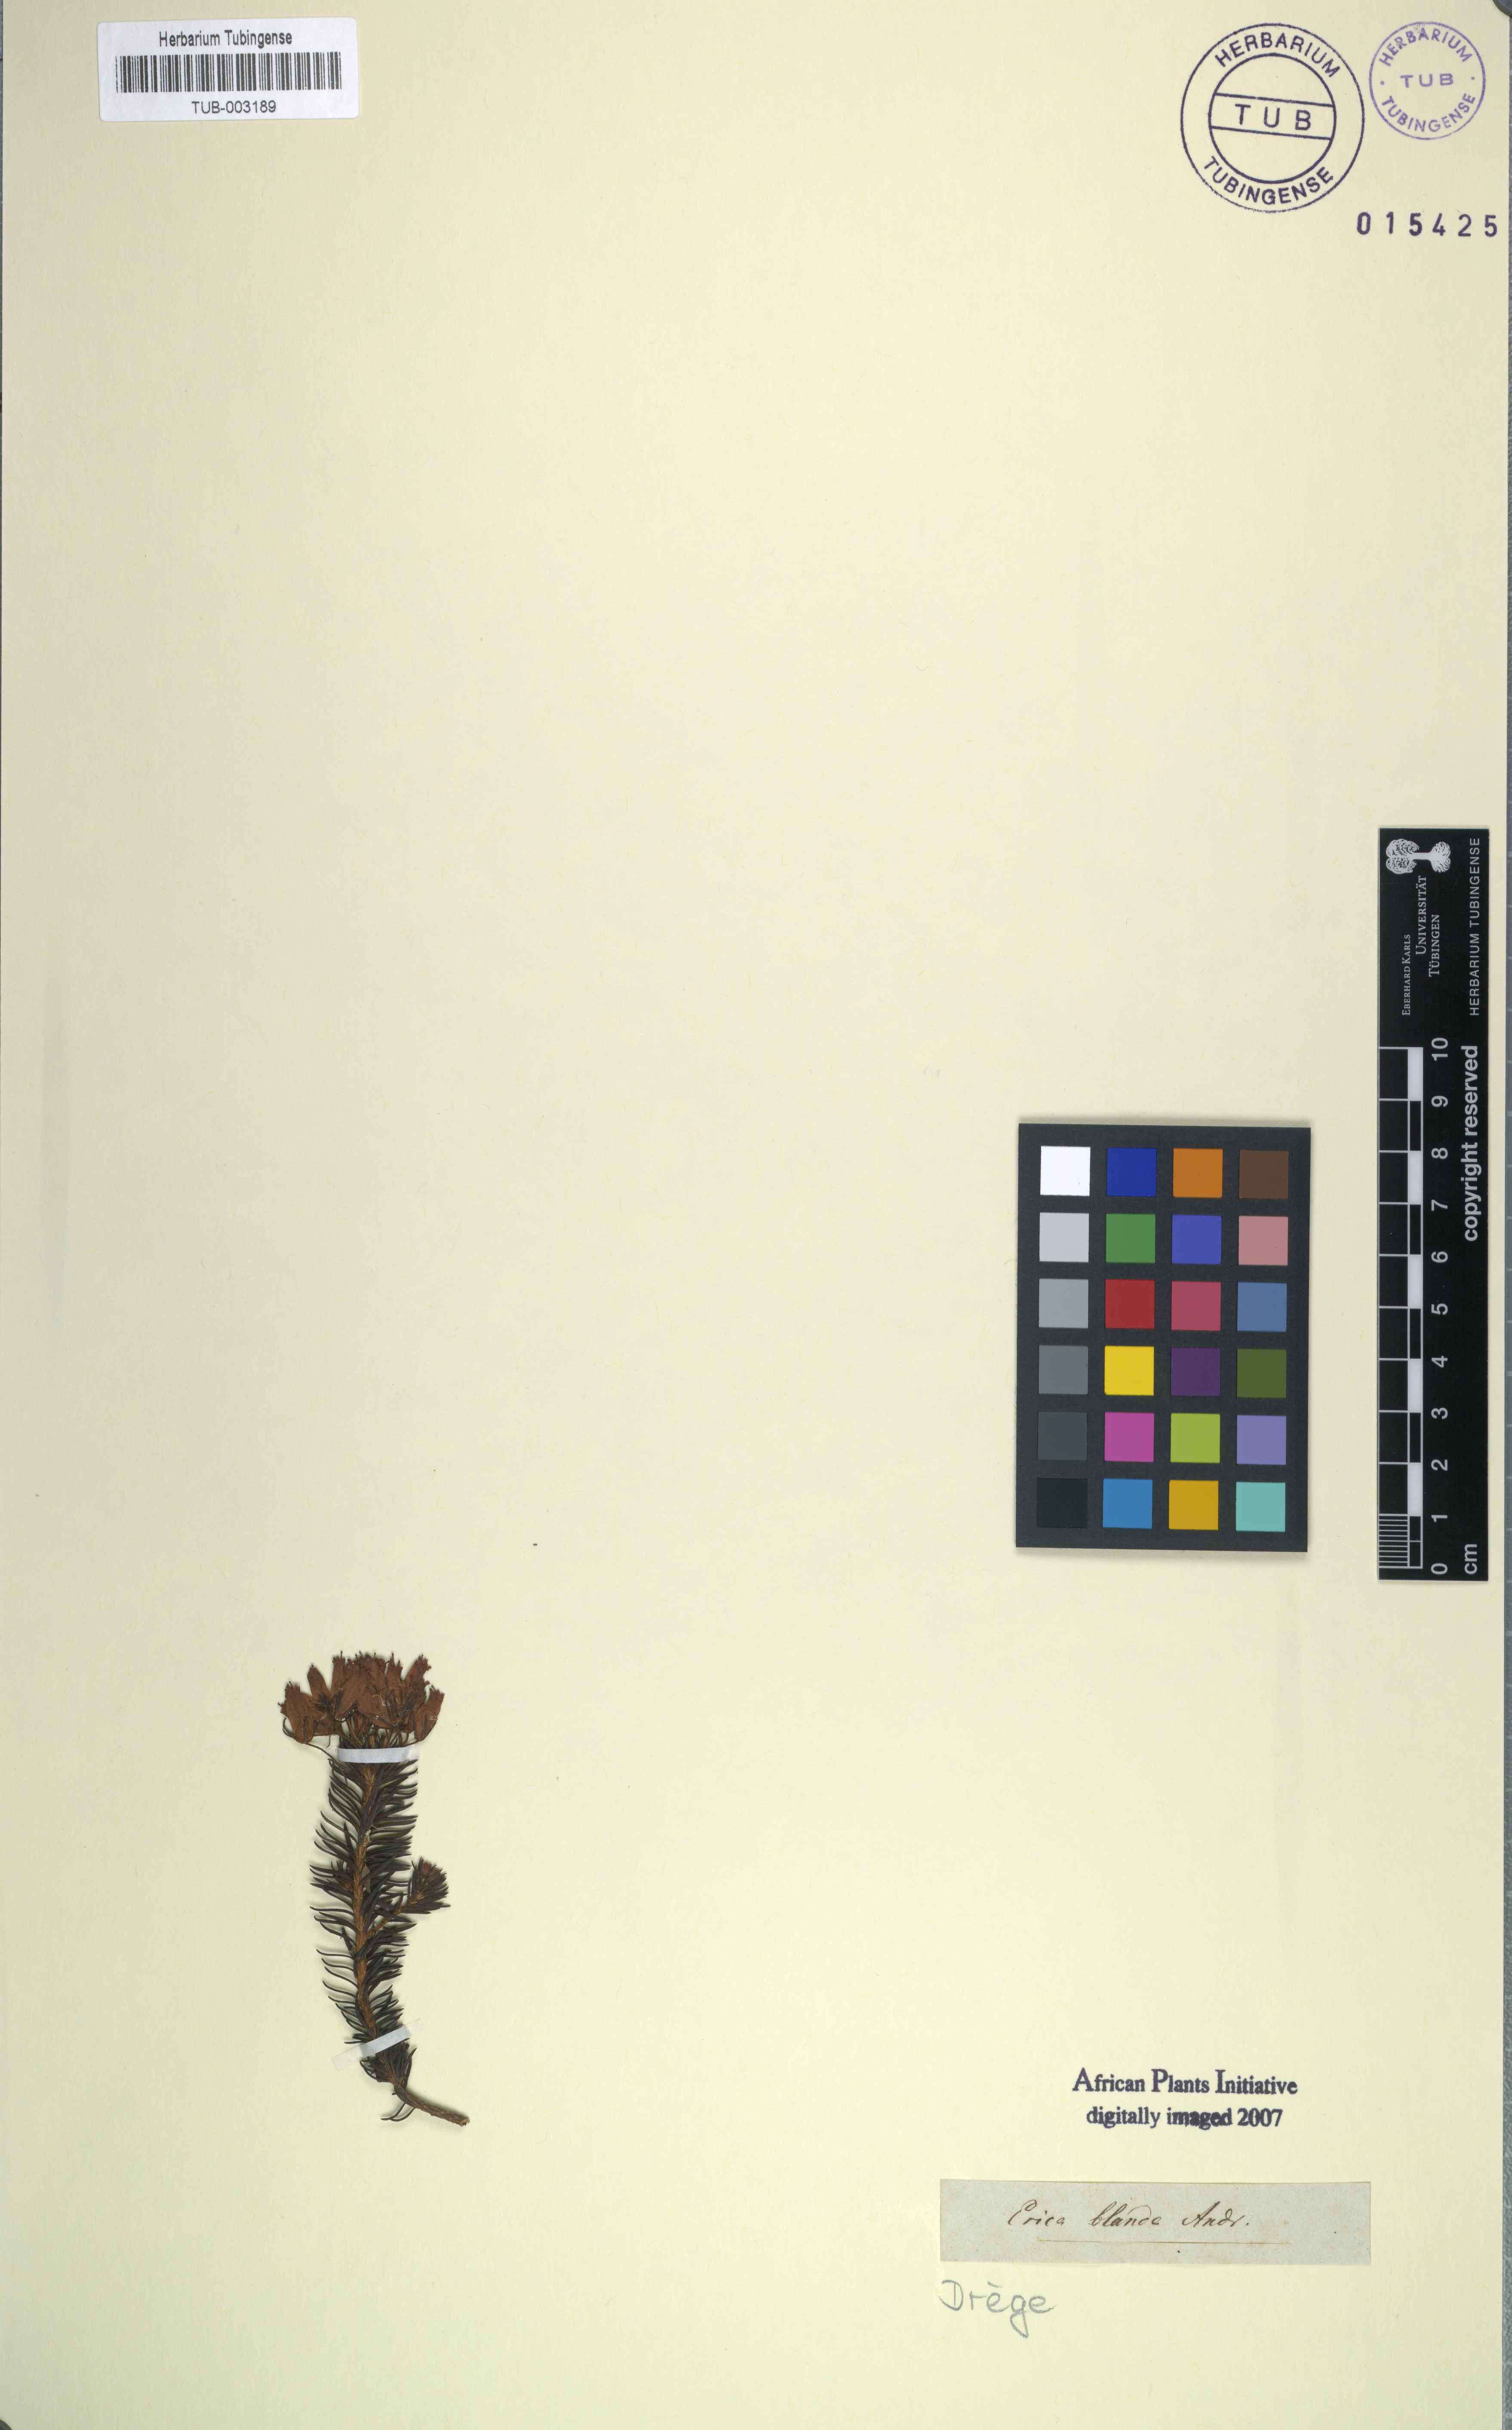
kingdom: Plantae
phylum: Tracheophyta
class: Magnoliopsida
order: Ericales
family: Ericaceae
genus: Erica
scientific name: Erica doliiformis
